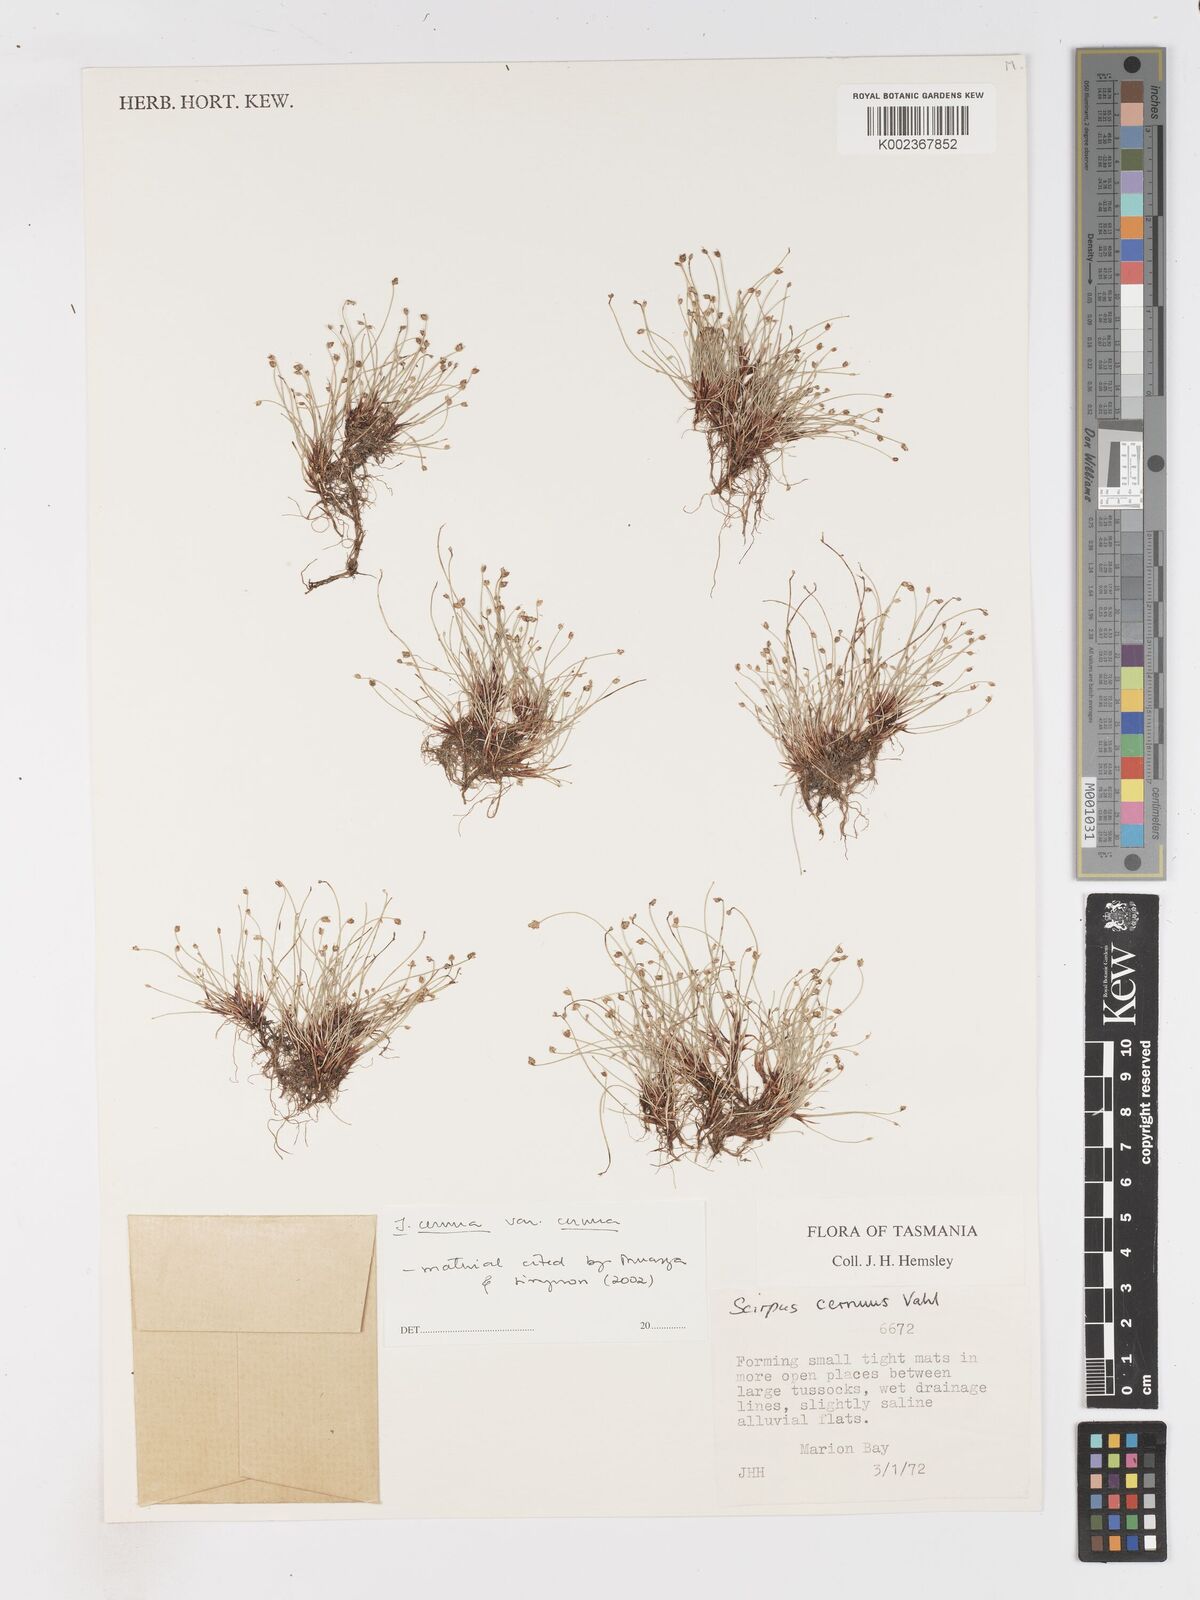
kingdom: Plantae
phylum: Tracheophyta
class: Liliopsida
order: Poales
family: Cyperaceae
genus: Isolepis
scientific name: Isolepis cernua
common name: Slender club-rush
